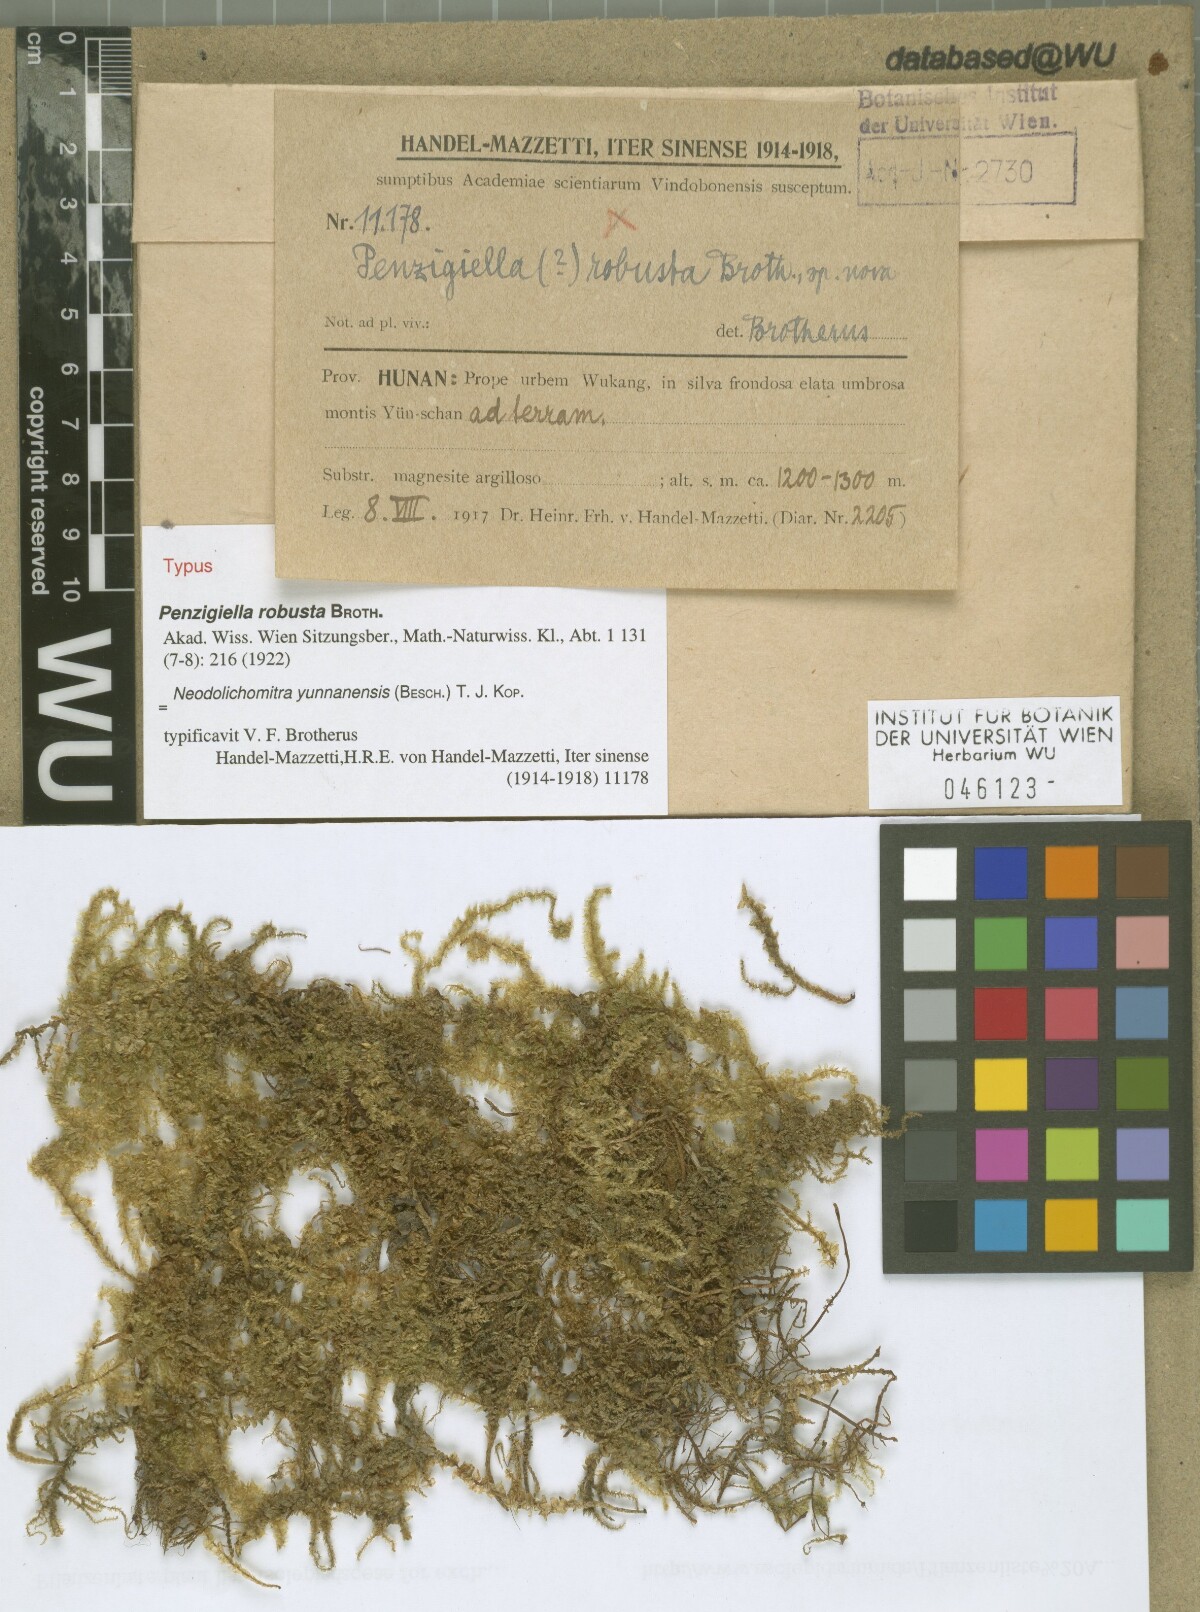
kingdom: Plantae
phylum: Bryophyta
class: Bryopsida
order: Hypnales
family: Hylocomiaceae
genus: Neodolichomitra
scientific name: Neodolichomitra yunnanensis
